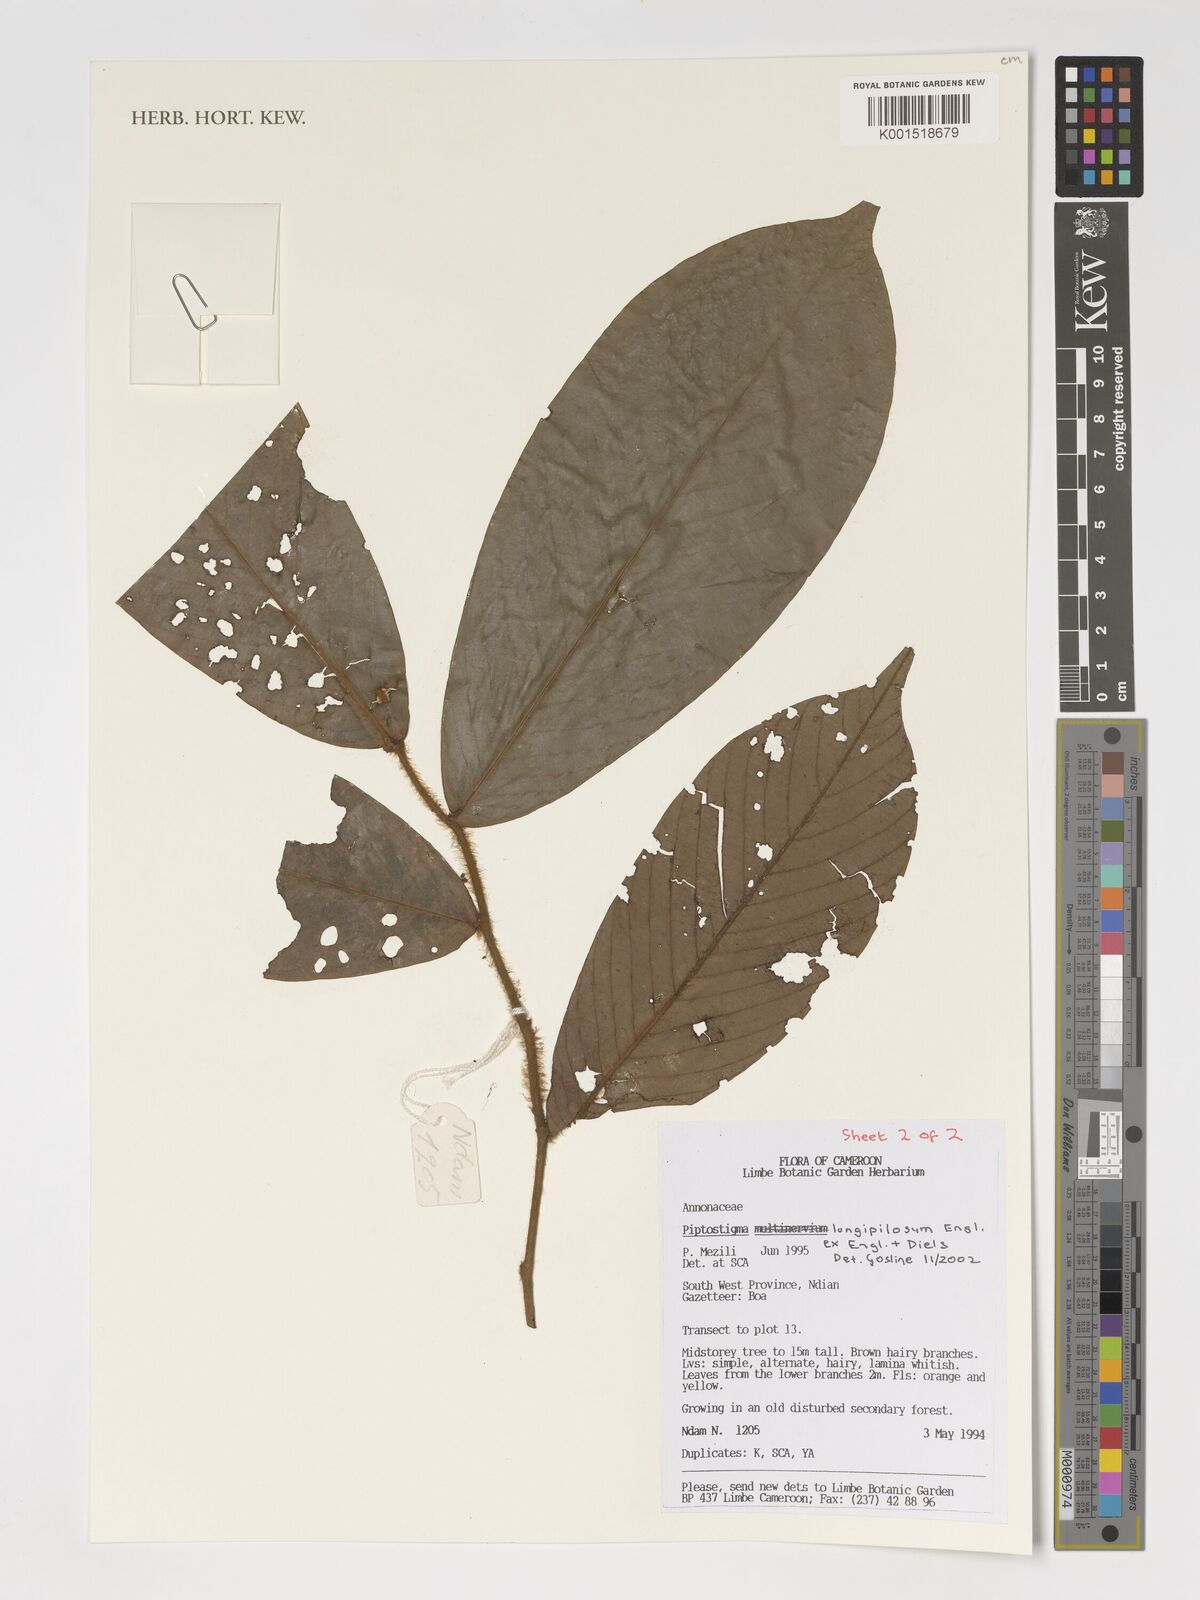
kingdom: Plantae
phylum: Tracheophyta
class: Magnoliopsida
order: Magnoliales
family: Annonaceae
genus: Piptostigma
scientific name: Piptostigma longepilosum
